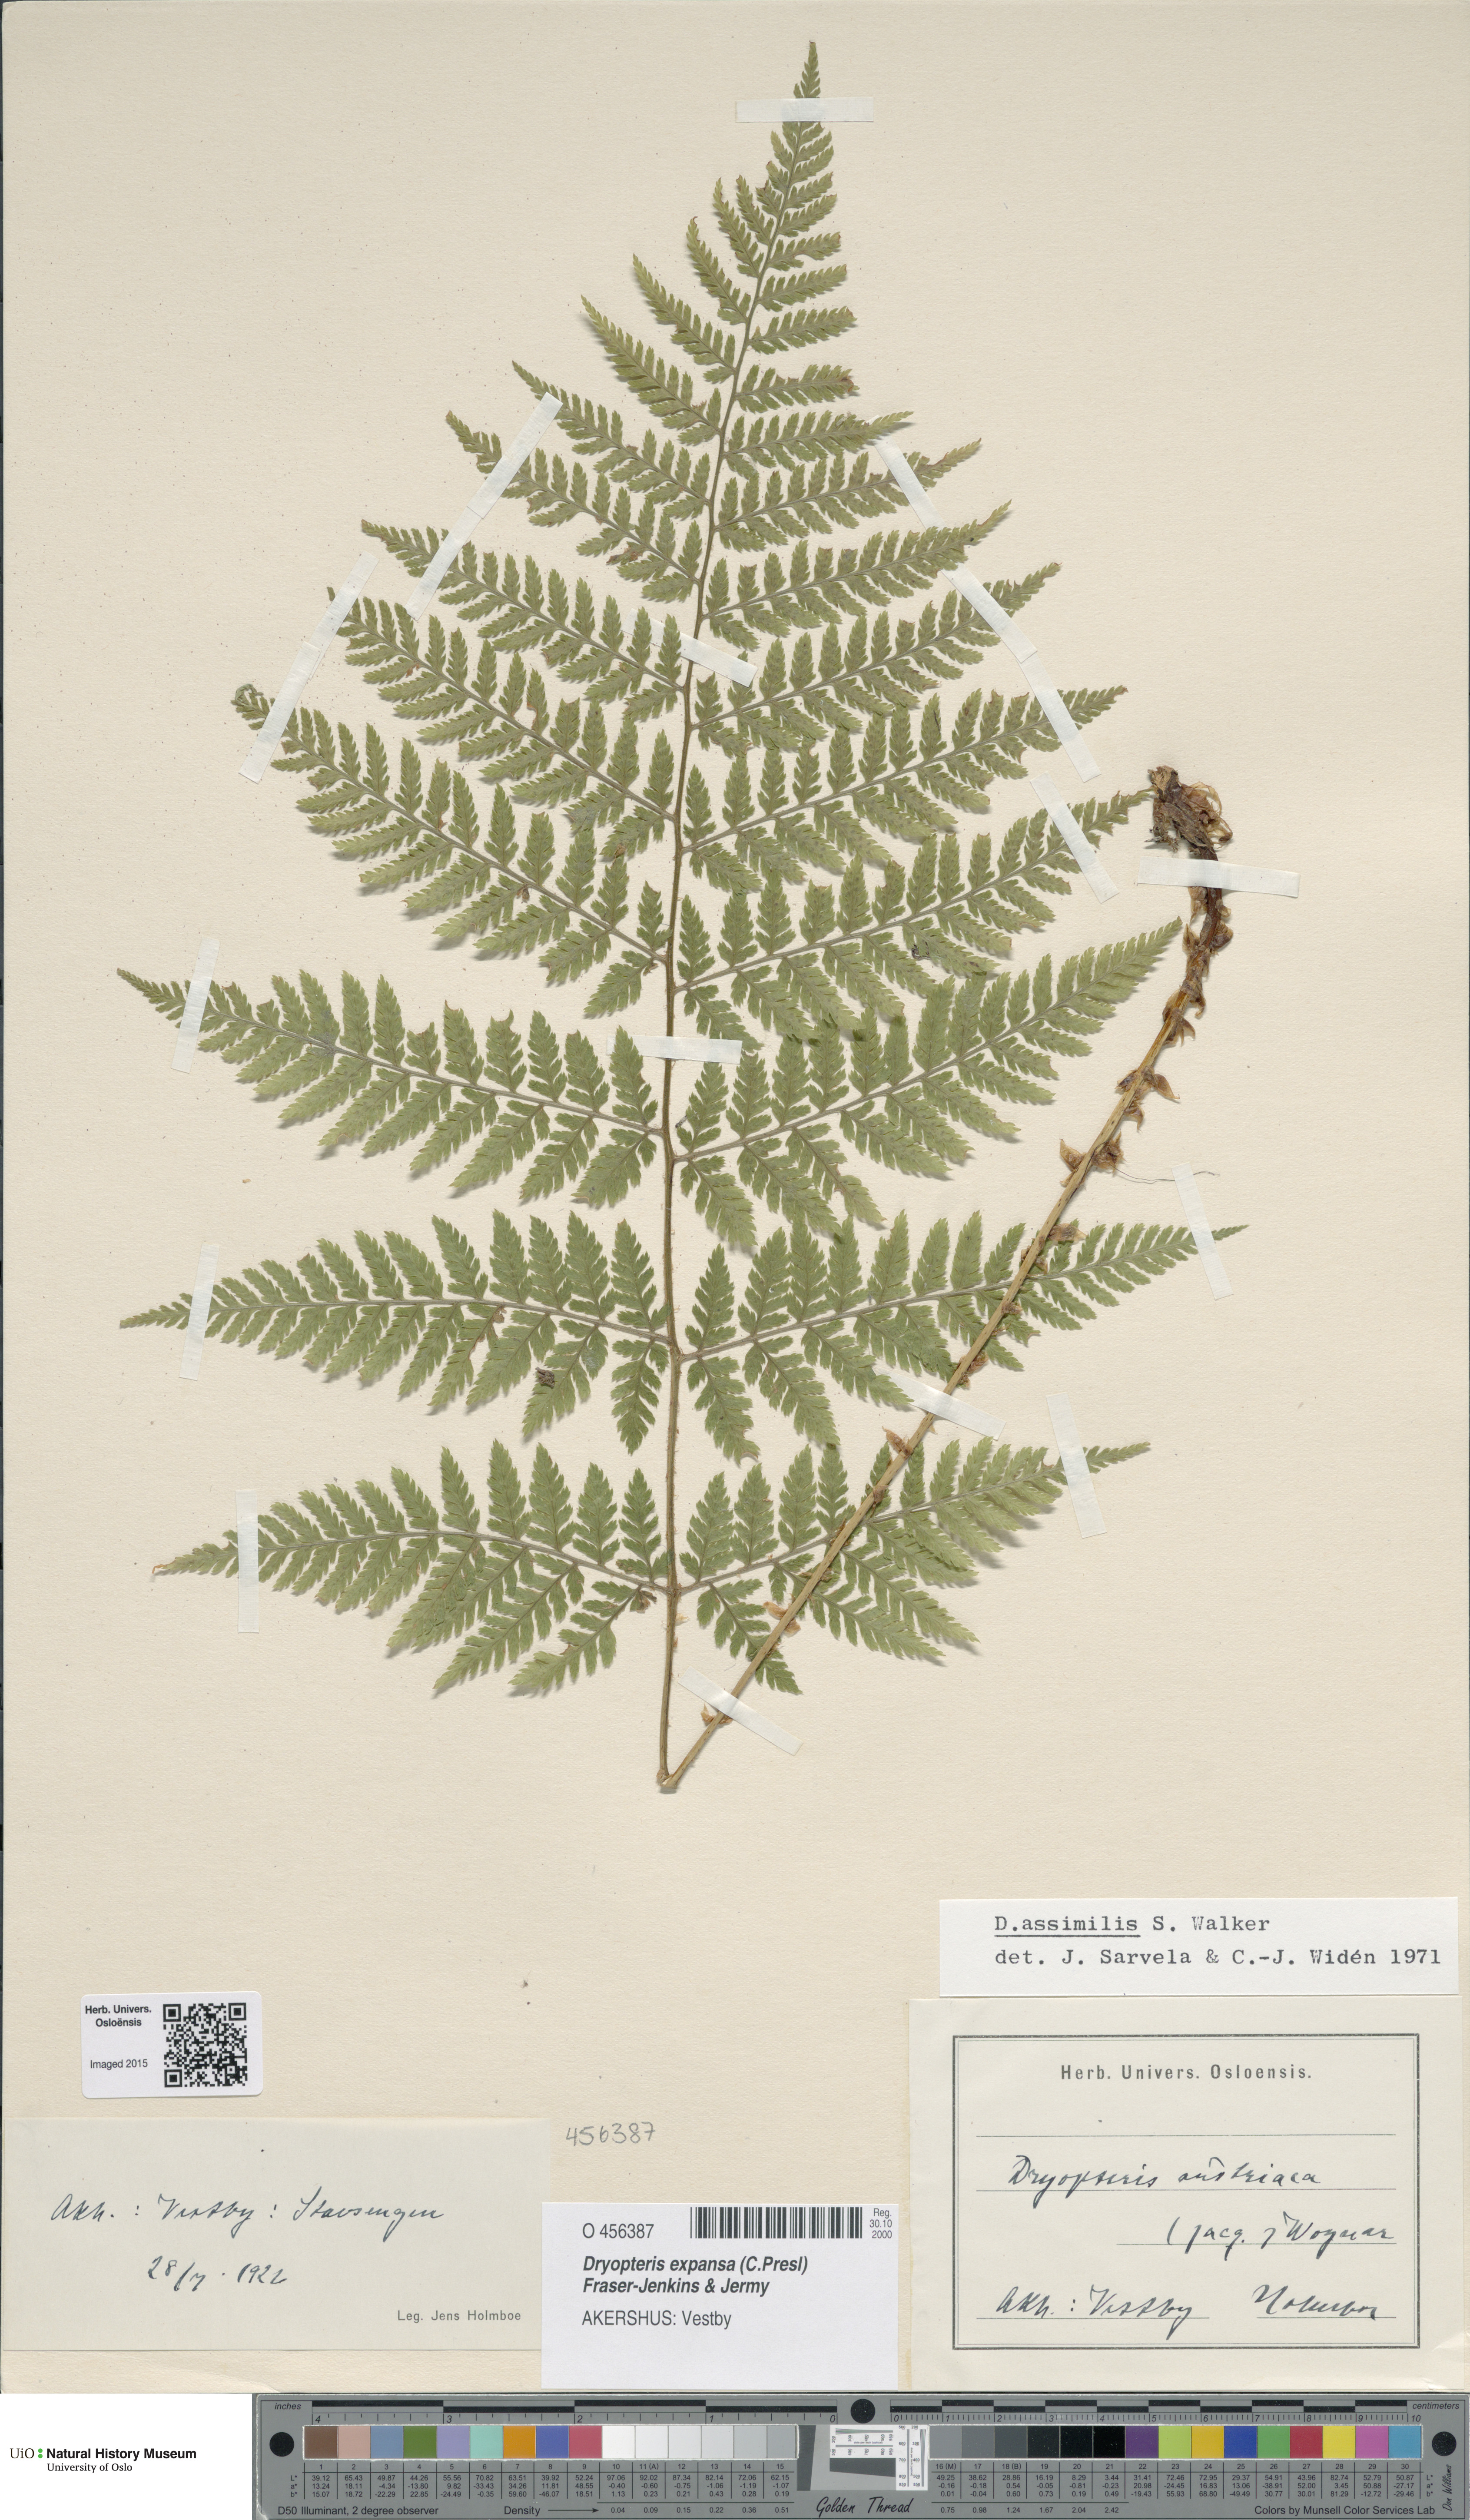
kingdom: Plantae
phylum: Tracheophyta
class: Polypodiopsida
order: Polypodiales
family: Dryopteridaceae
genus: Dryopteris
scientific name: Dryopteris expansa
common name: Northern buckler fern
